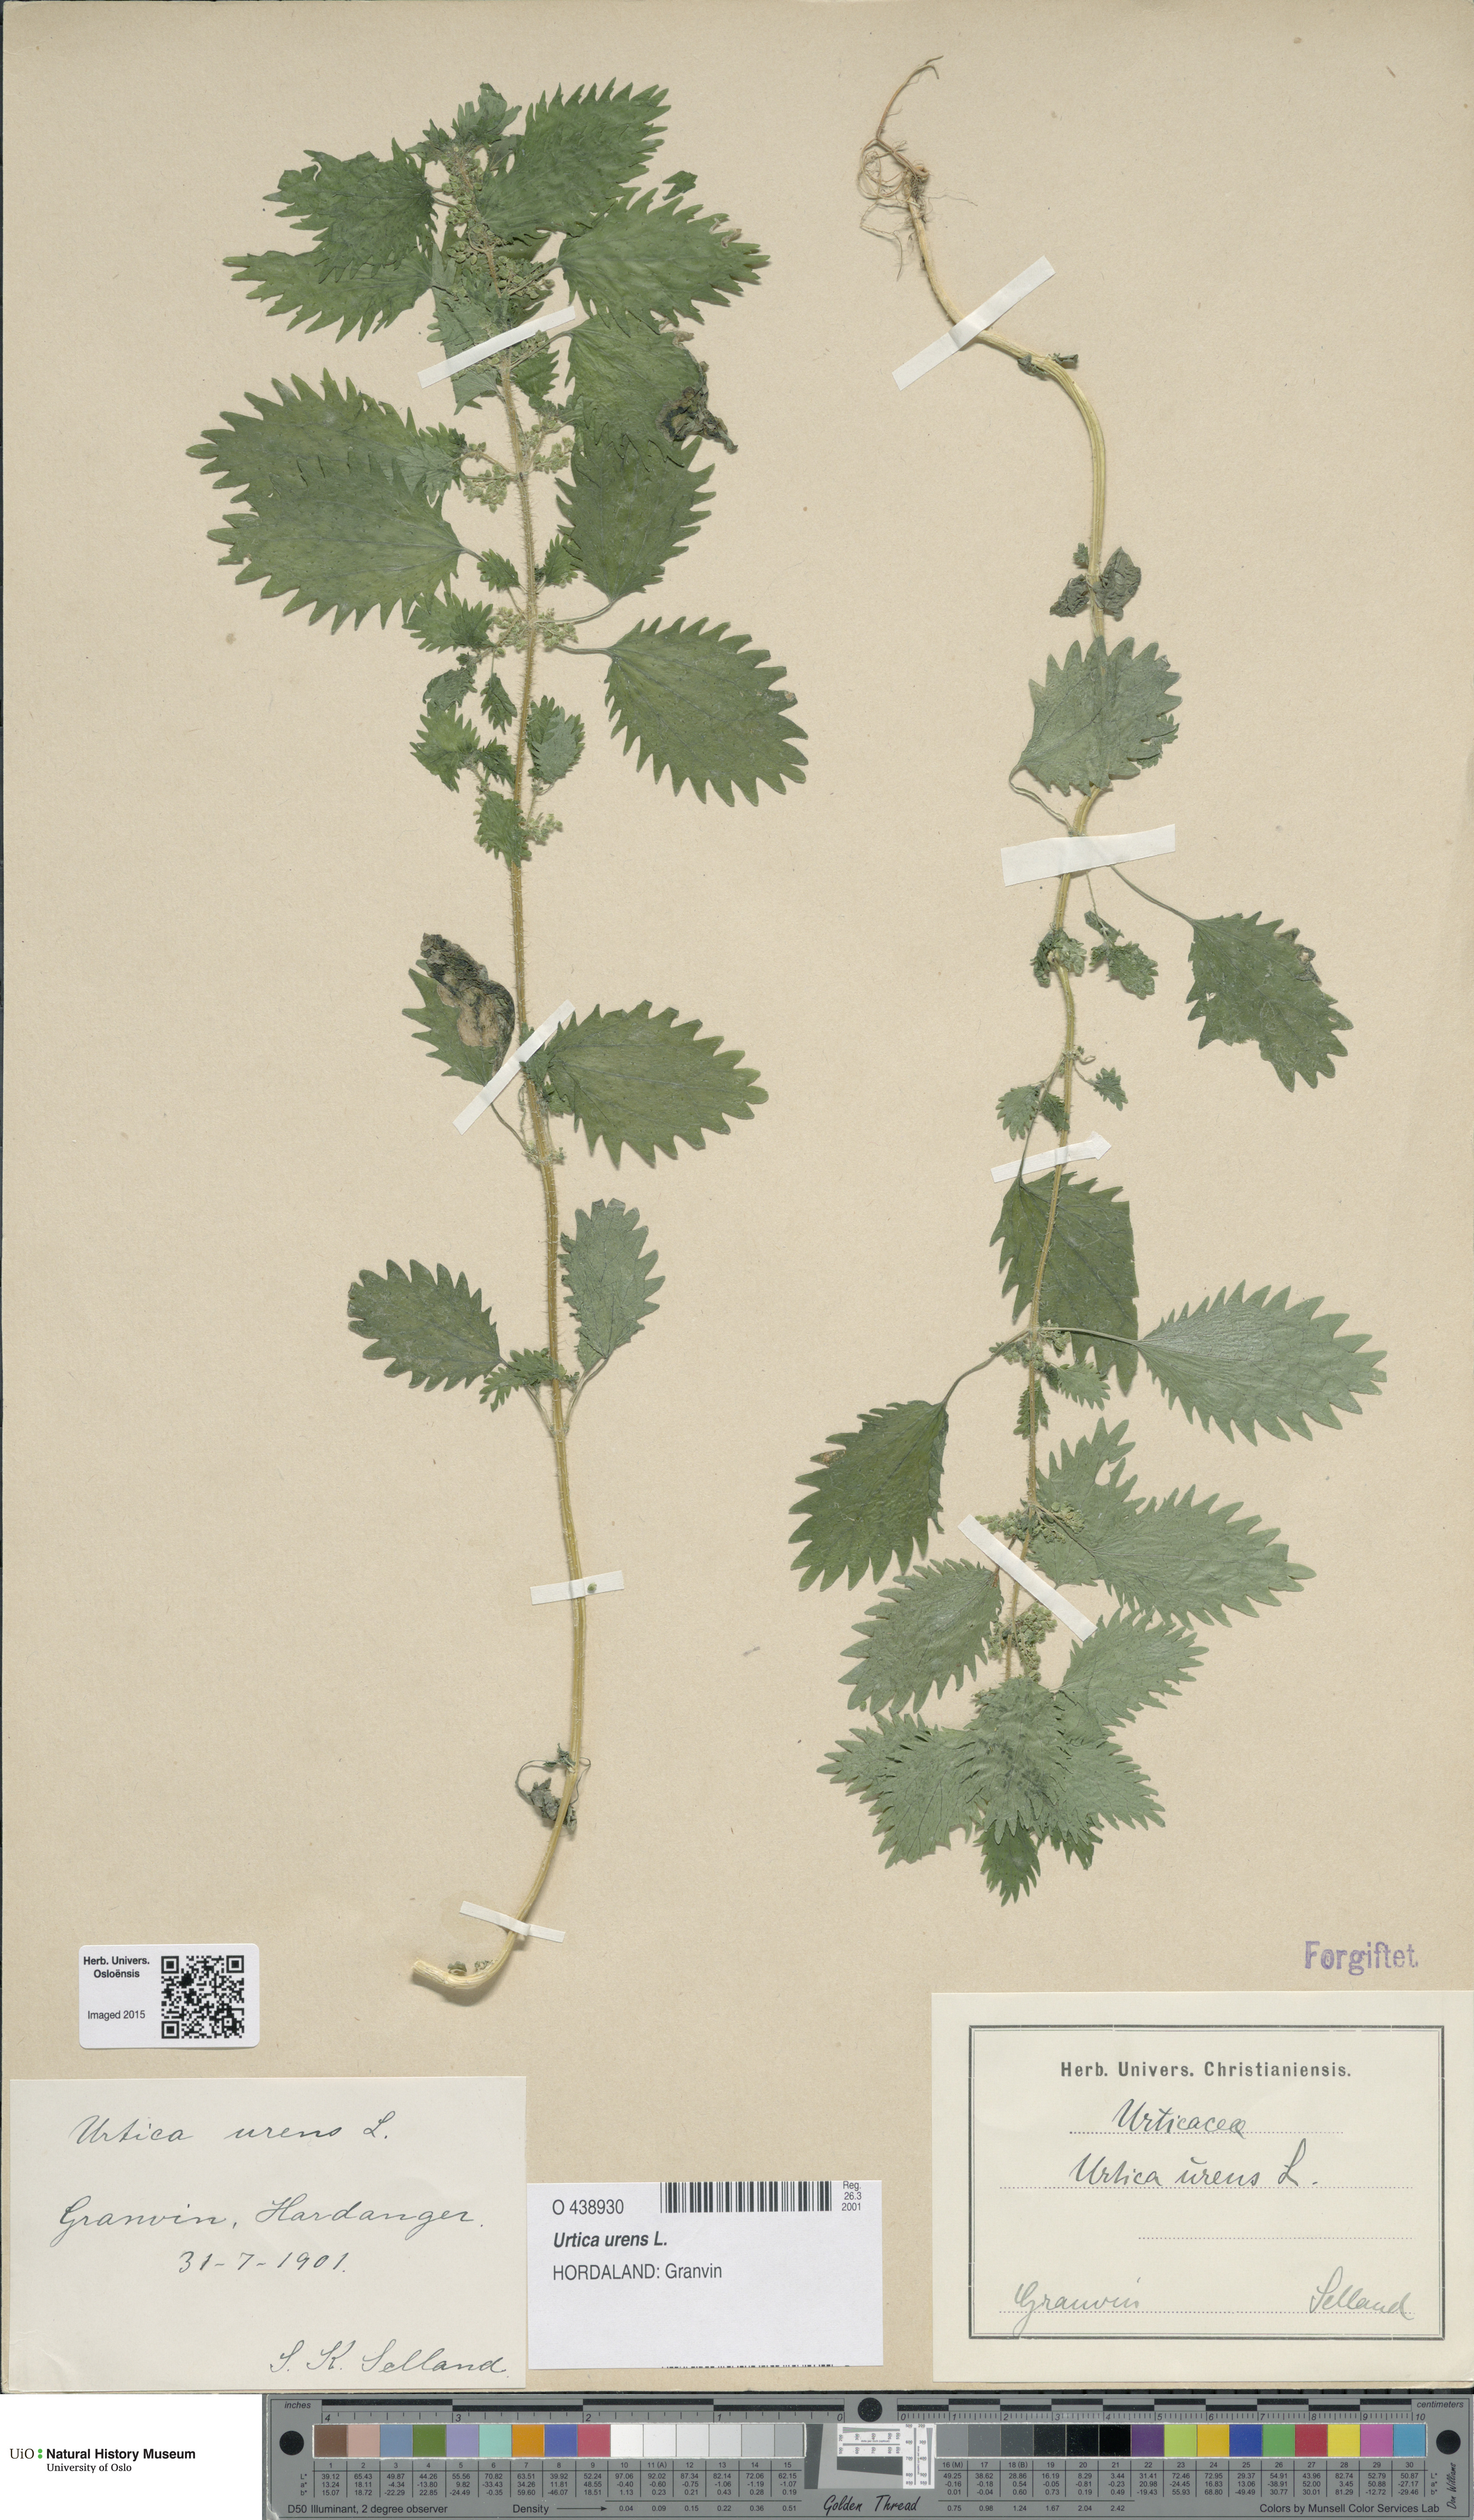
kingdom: Plantae
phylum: Tracheophyta
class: Magnoliopsida
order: Rosales
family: Urticaceae
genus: Urtica
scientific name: Urtica urens
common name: Dwarf nettle
